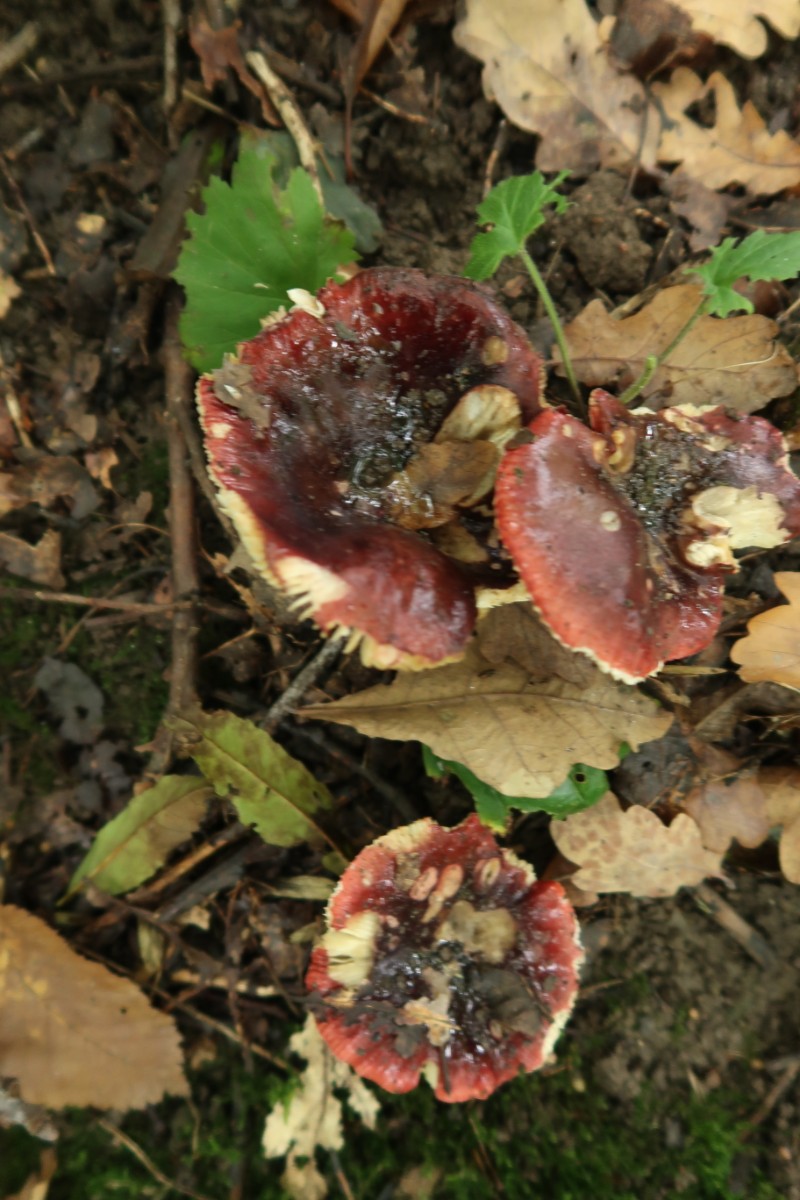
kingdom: Fungi
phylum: Basidiomycota
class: Agaricomycetes
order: Russulales
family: Russulaceae
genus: Russula
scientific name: Russula atropurpurea
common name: purpurbroget skørhat
